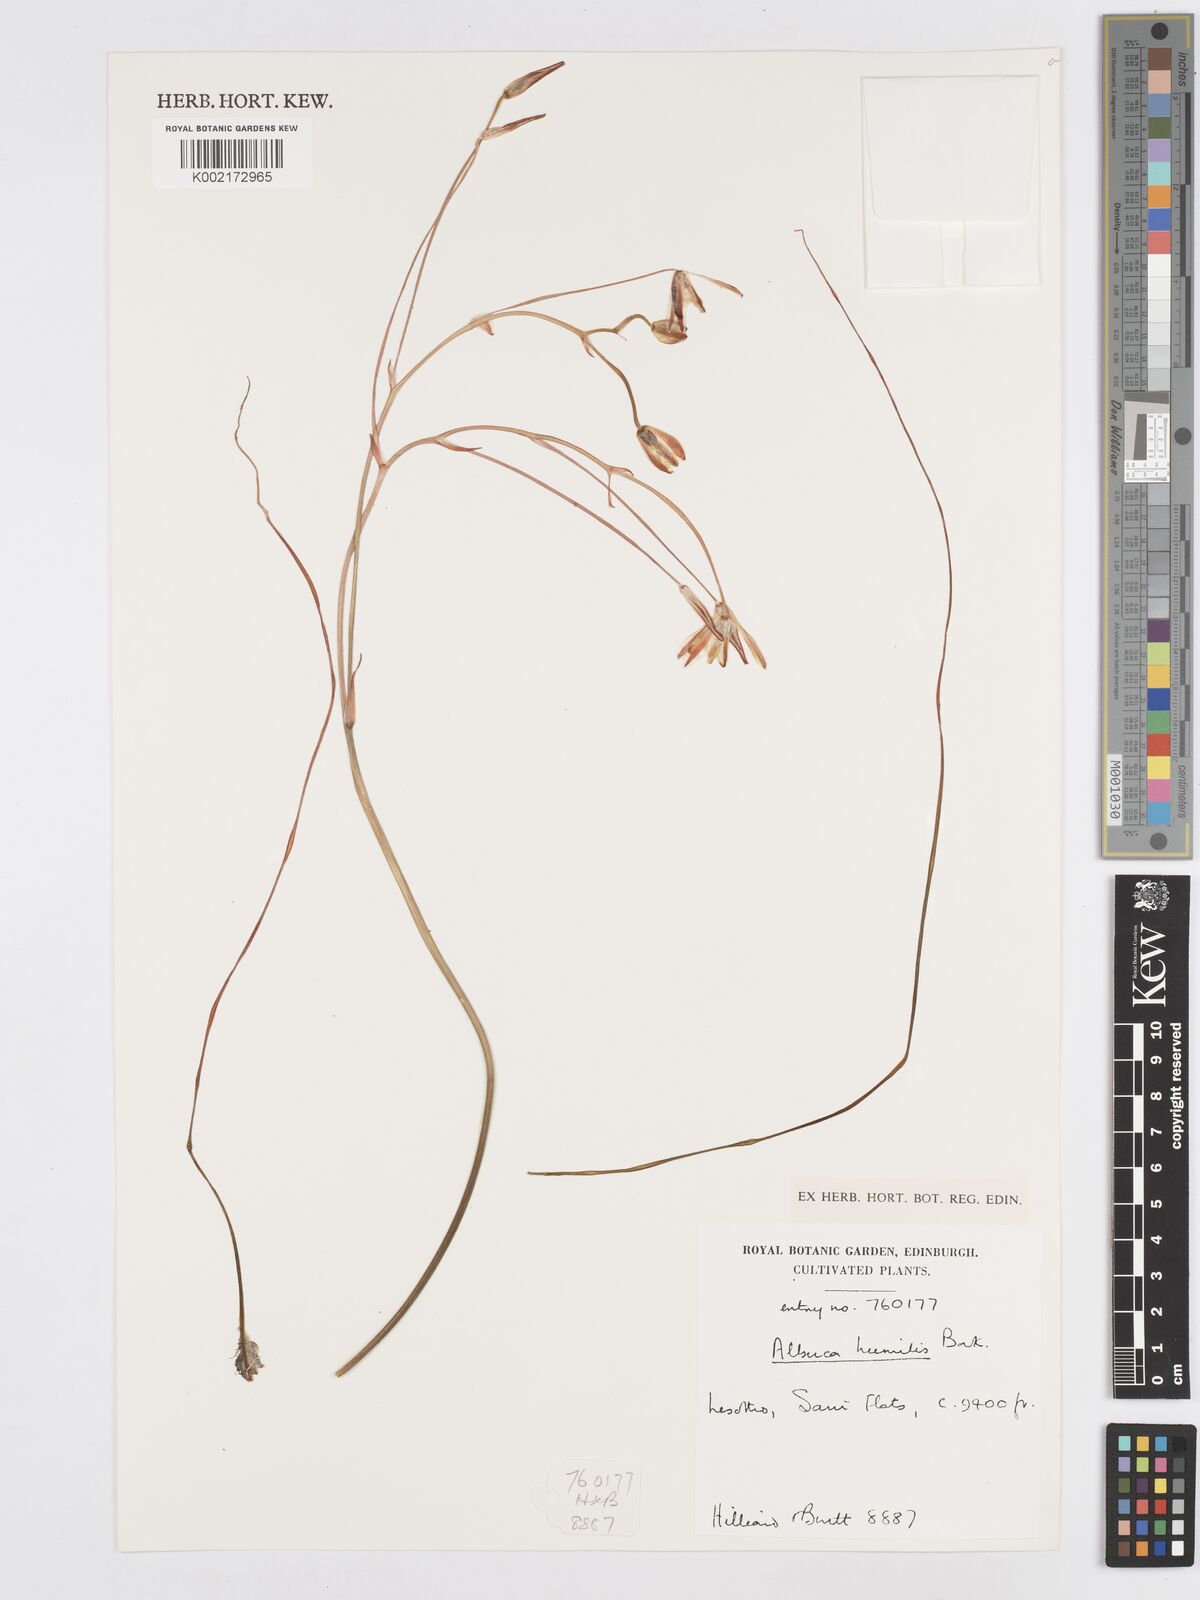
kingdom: Plantae
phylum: Tracheophyta
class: Liliopsida
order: Asparagales
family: Asparagaceae
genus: Albuca
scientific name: Albuca humilis
